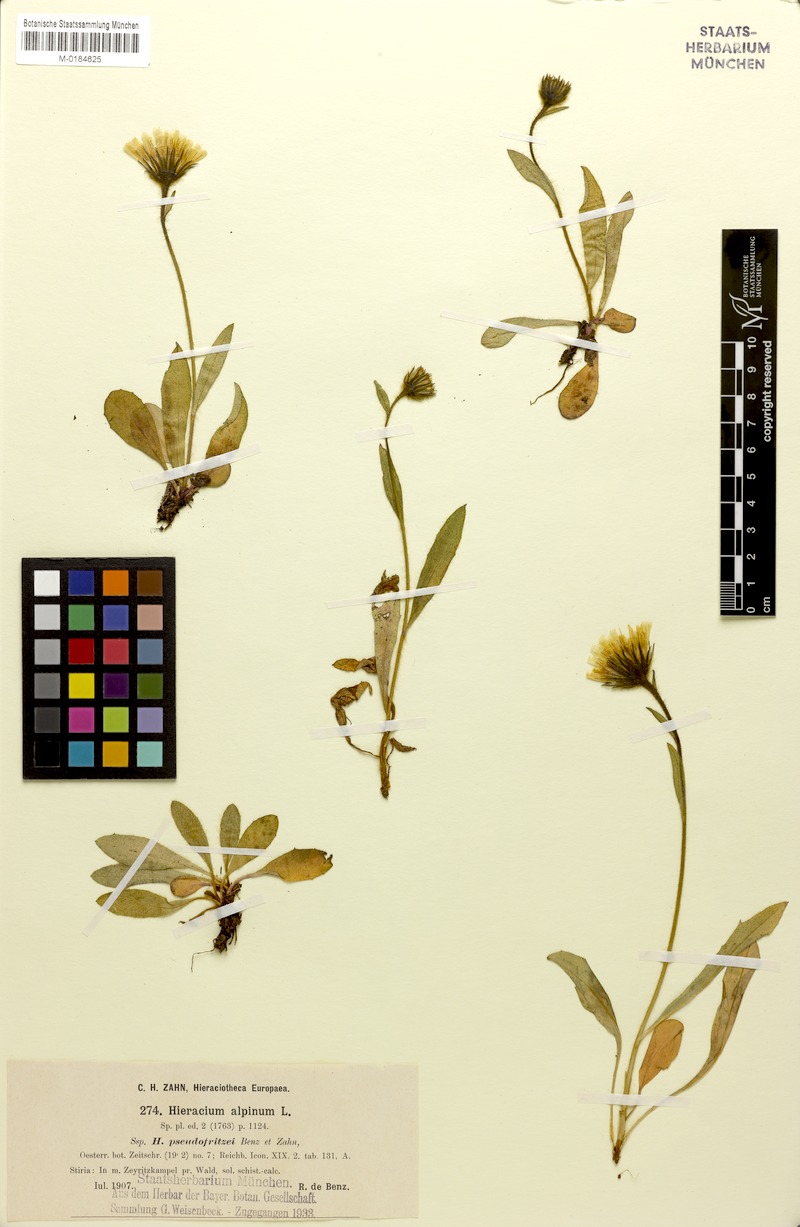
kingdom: Plantae
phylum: Tracheophyta
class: Magnoliopsida
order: Asterales
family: Asteraceae
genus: Hieracium
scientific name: Hieracium pseudofritzei
